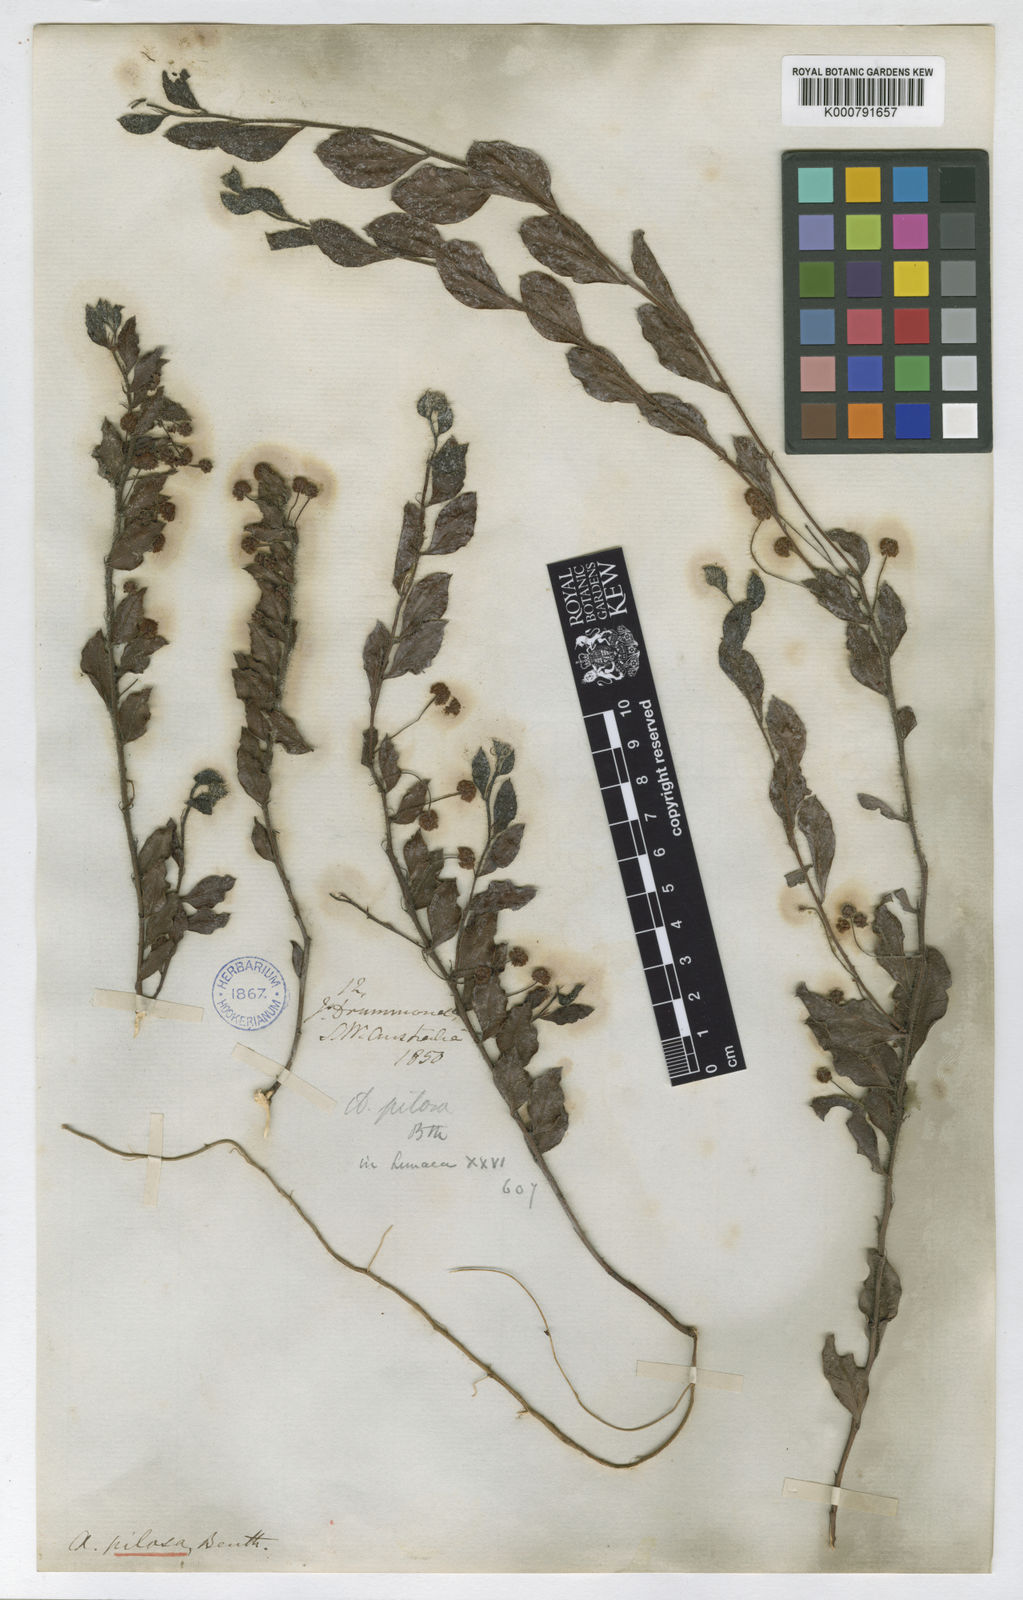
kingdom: Plantae
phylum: Tracheophyta
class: Magnoliopsida
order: Fabales
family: Fabaceae
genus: Acacia
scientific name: Acacia crispula
